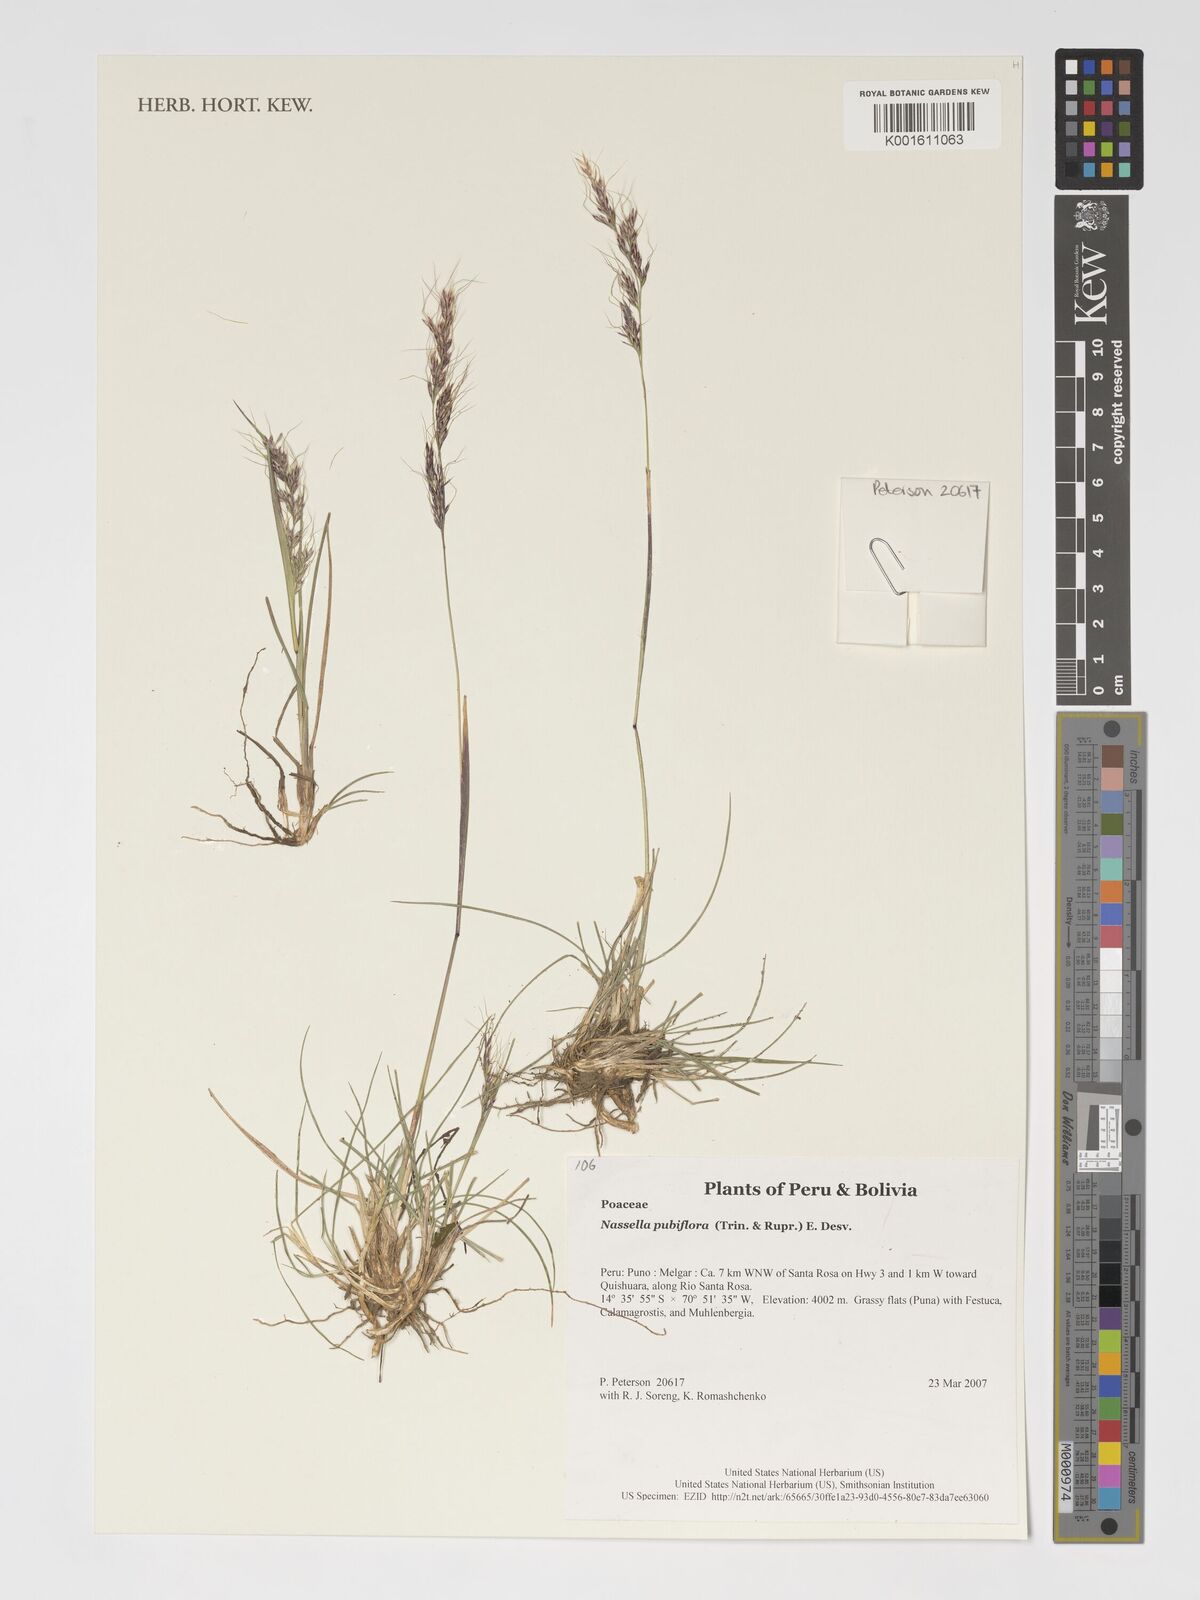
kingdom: Plantae
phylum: Tracheophyta
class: Liliopsida
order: Poales
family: Poaceae
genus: Nassella
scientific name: Nassella pubiflora
